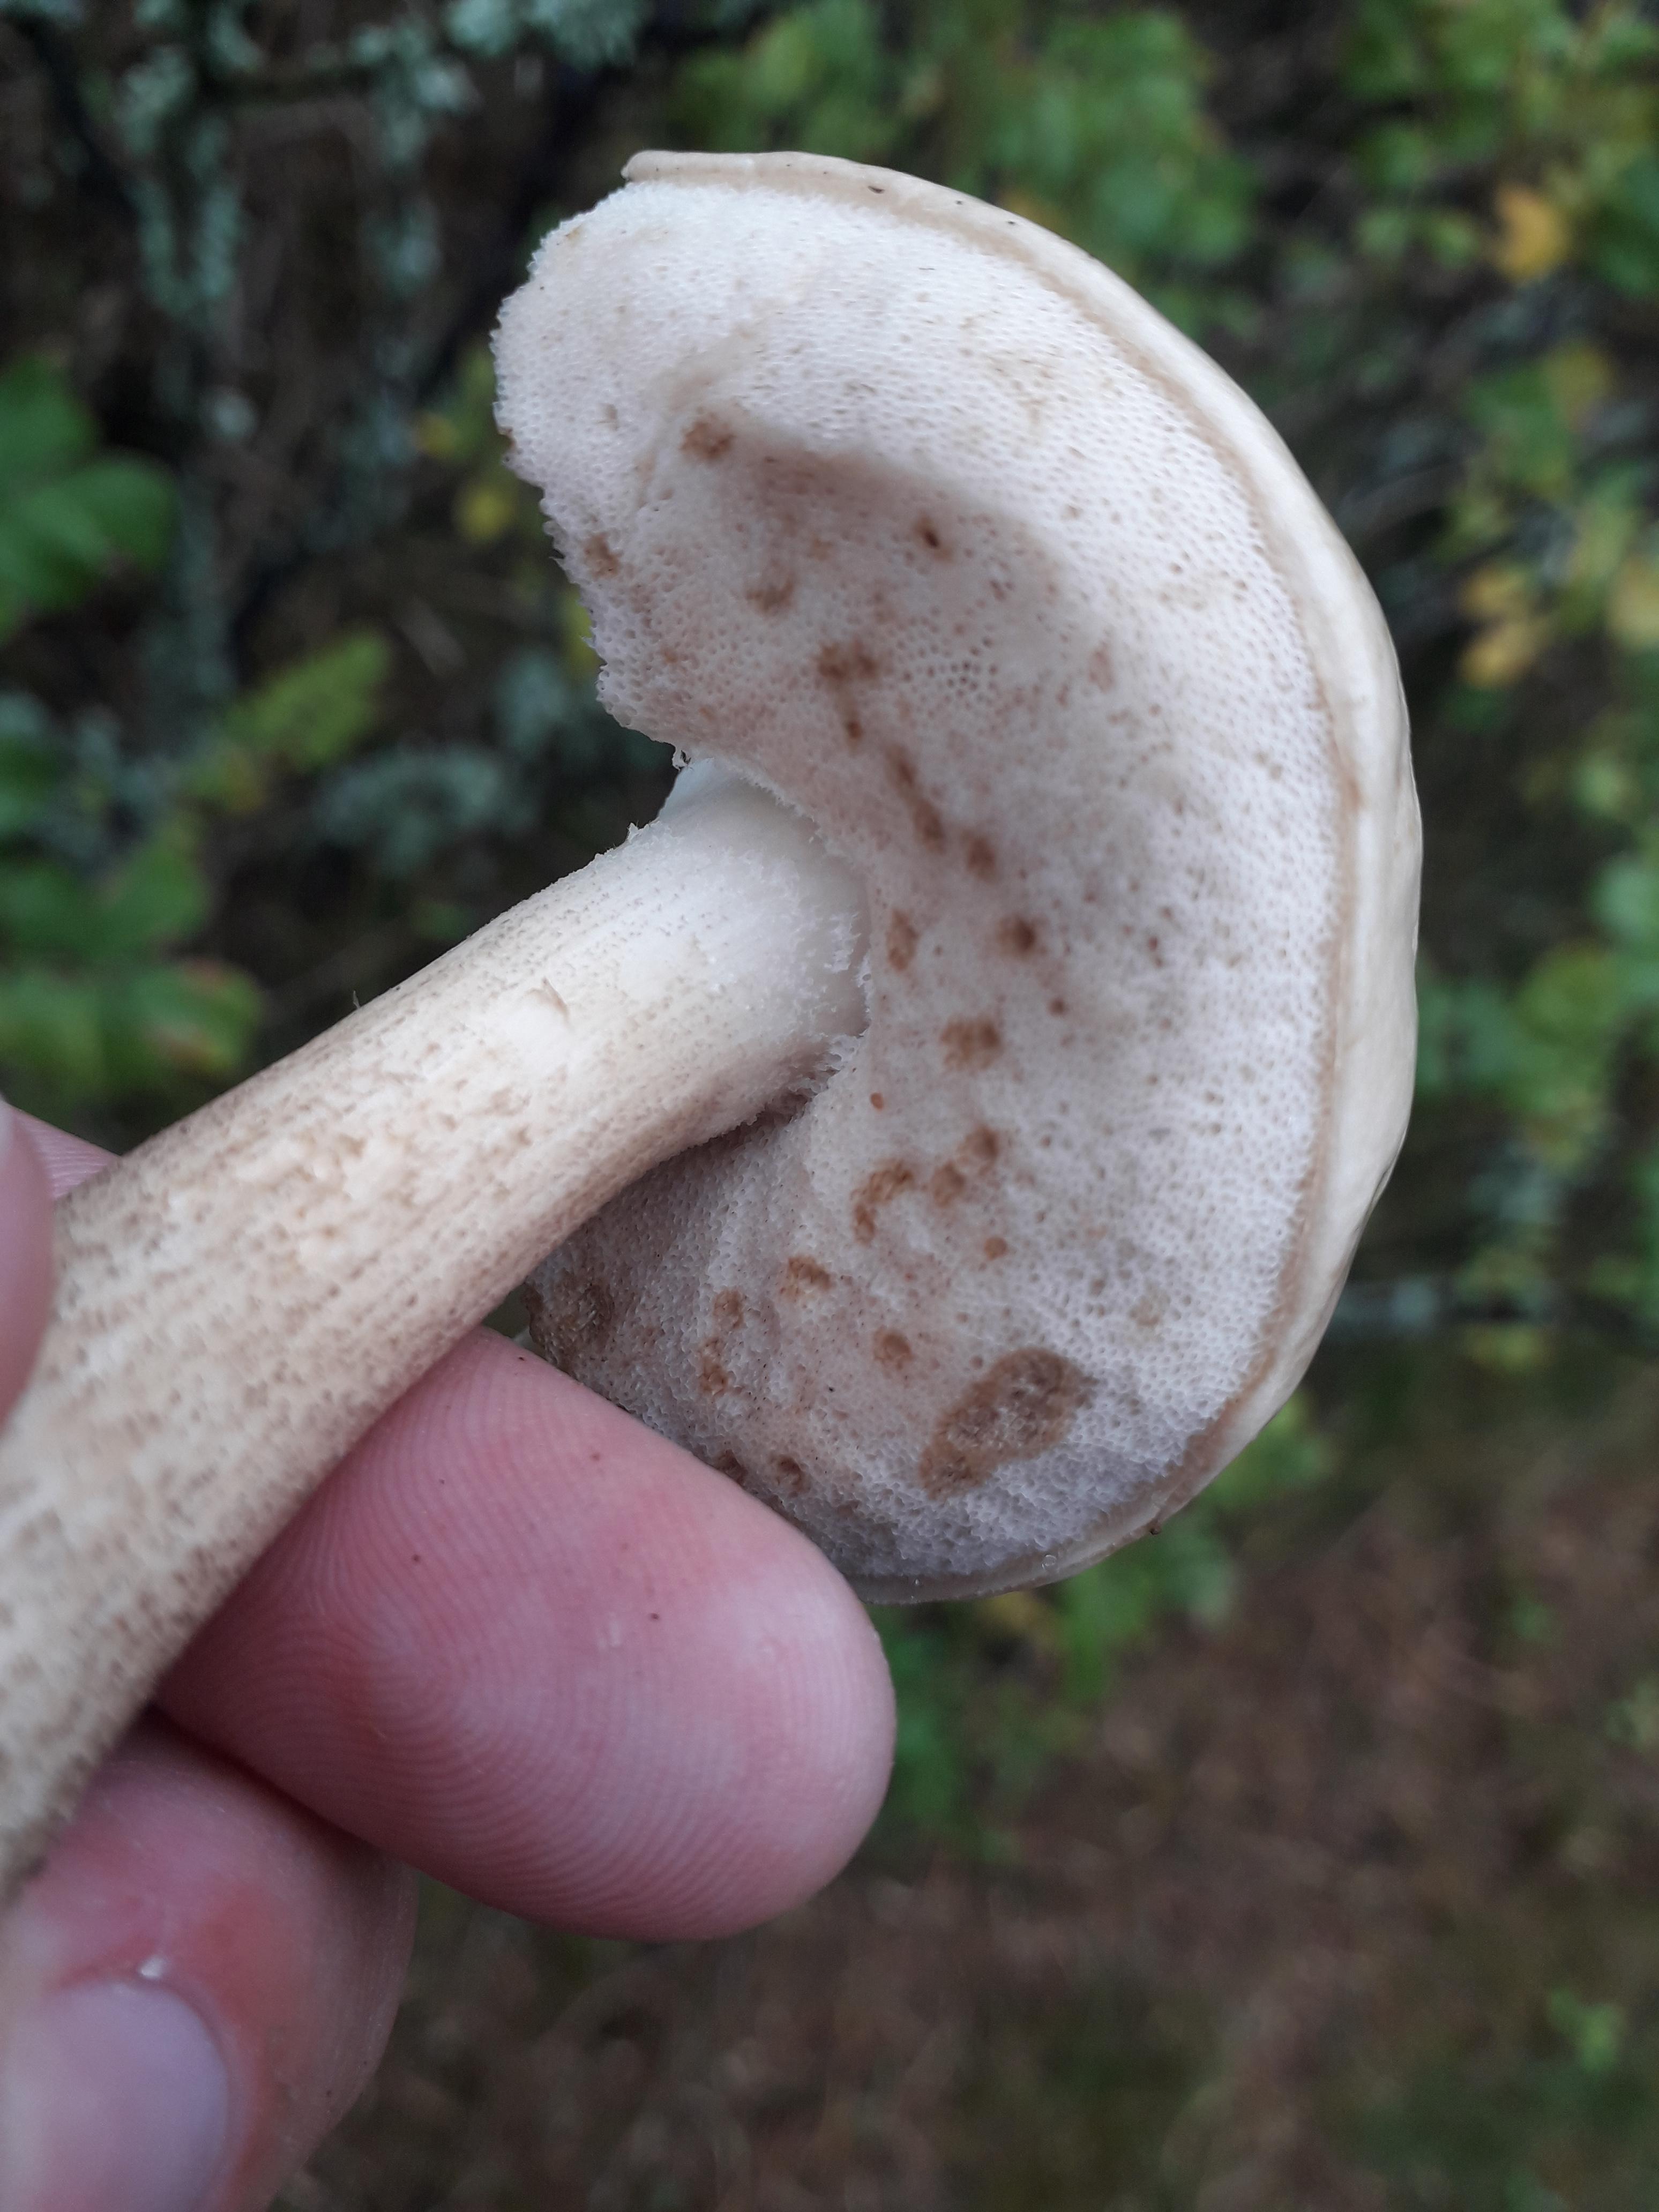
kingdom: Fungi
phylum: Basidiomycota
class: Agaricomycetes
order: Boletales
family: Boletaceae
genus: Leccinellum
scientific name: Leccinellum
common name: skælrørhat
